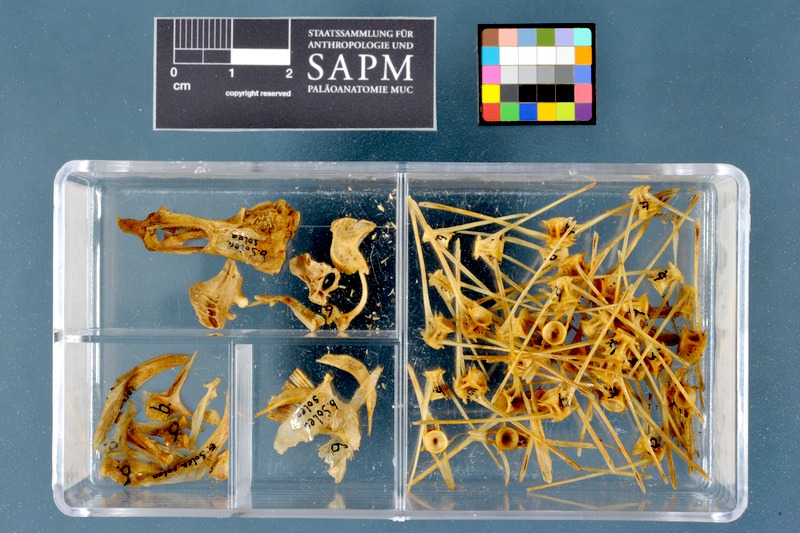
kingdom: Animalia
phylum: Chordata
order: Pleuronectiformes
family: Soleidae
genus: Solea
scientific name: Solea solea
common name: Sole
